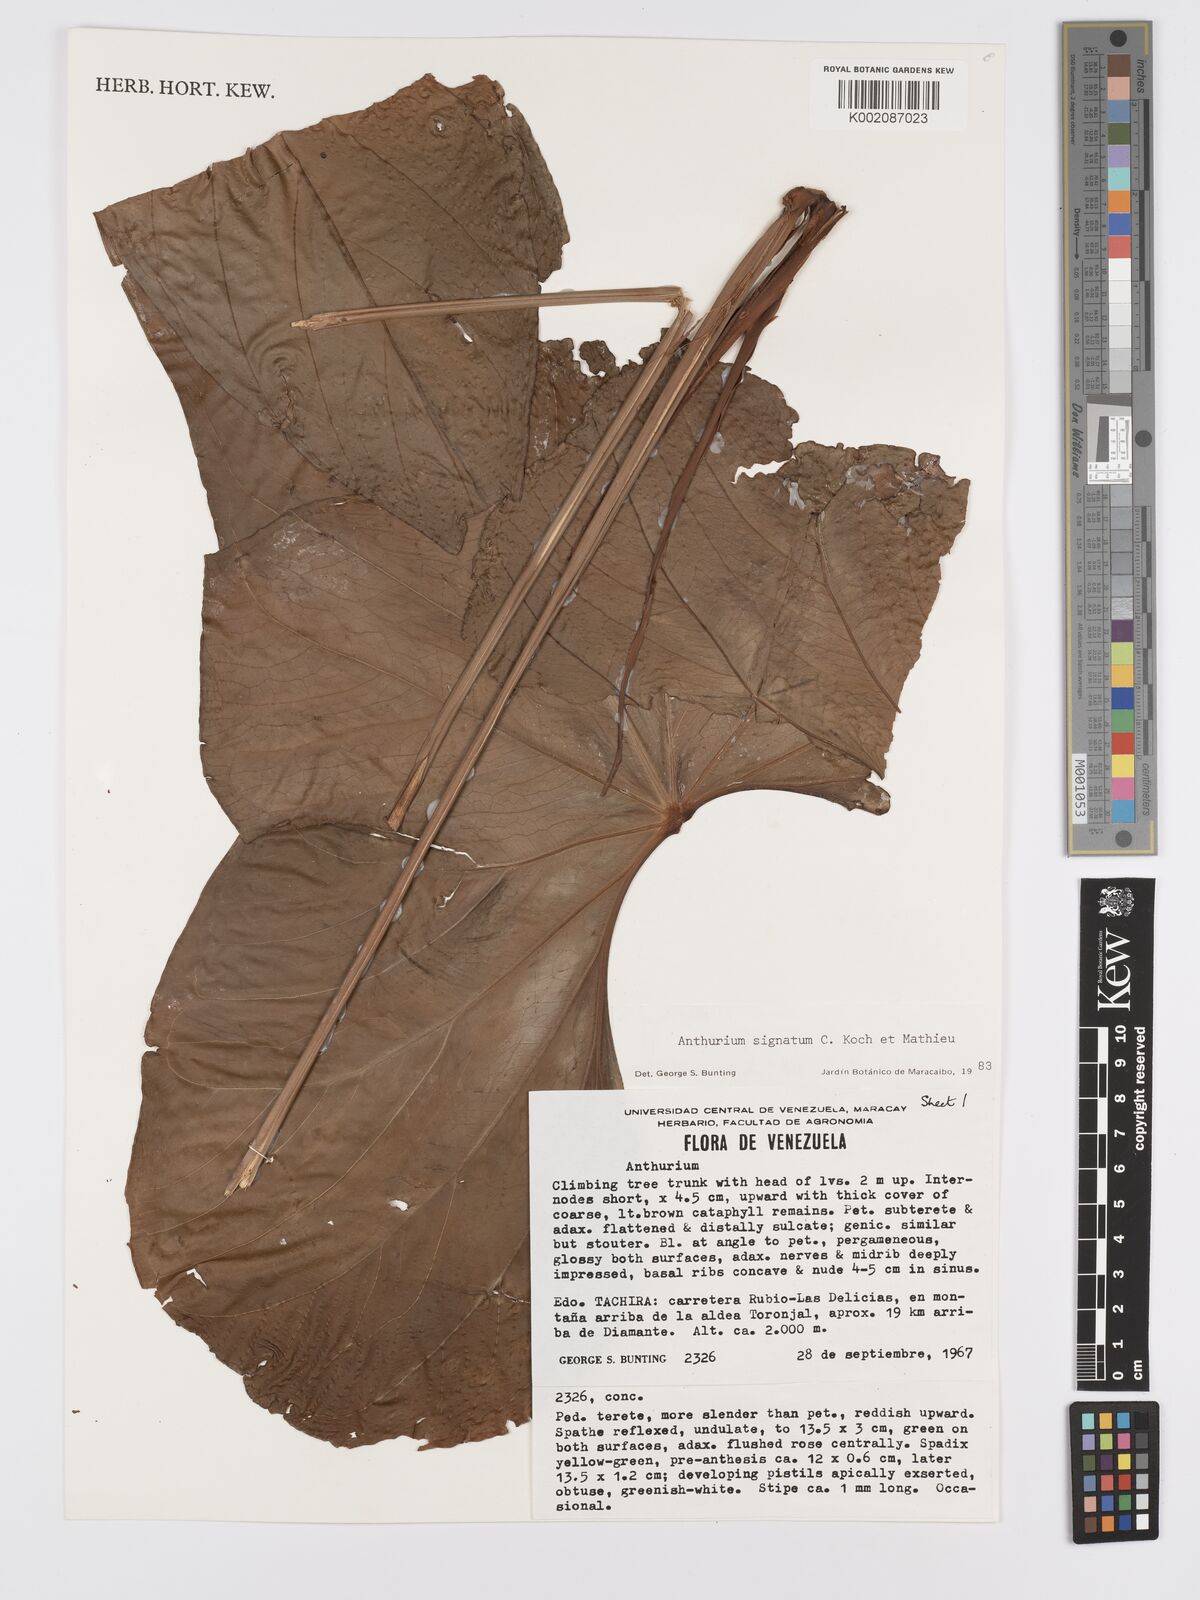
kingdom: Plantae
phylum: Tracheophyta
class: Liliopsida
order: Alismatales
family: Araceae
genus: Anthurium
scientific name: Anthurium signatum
